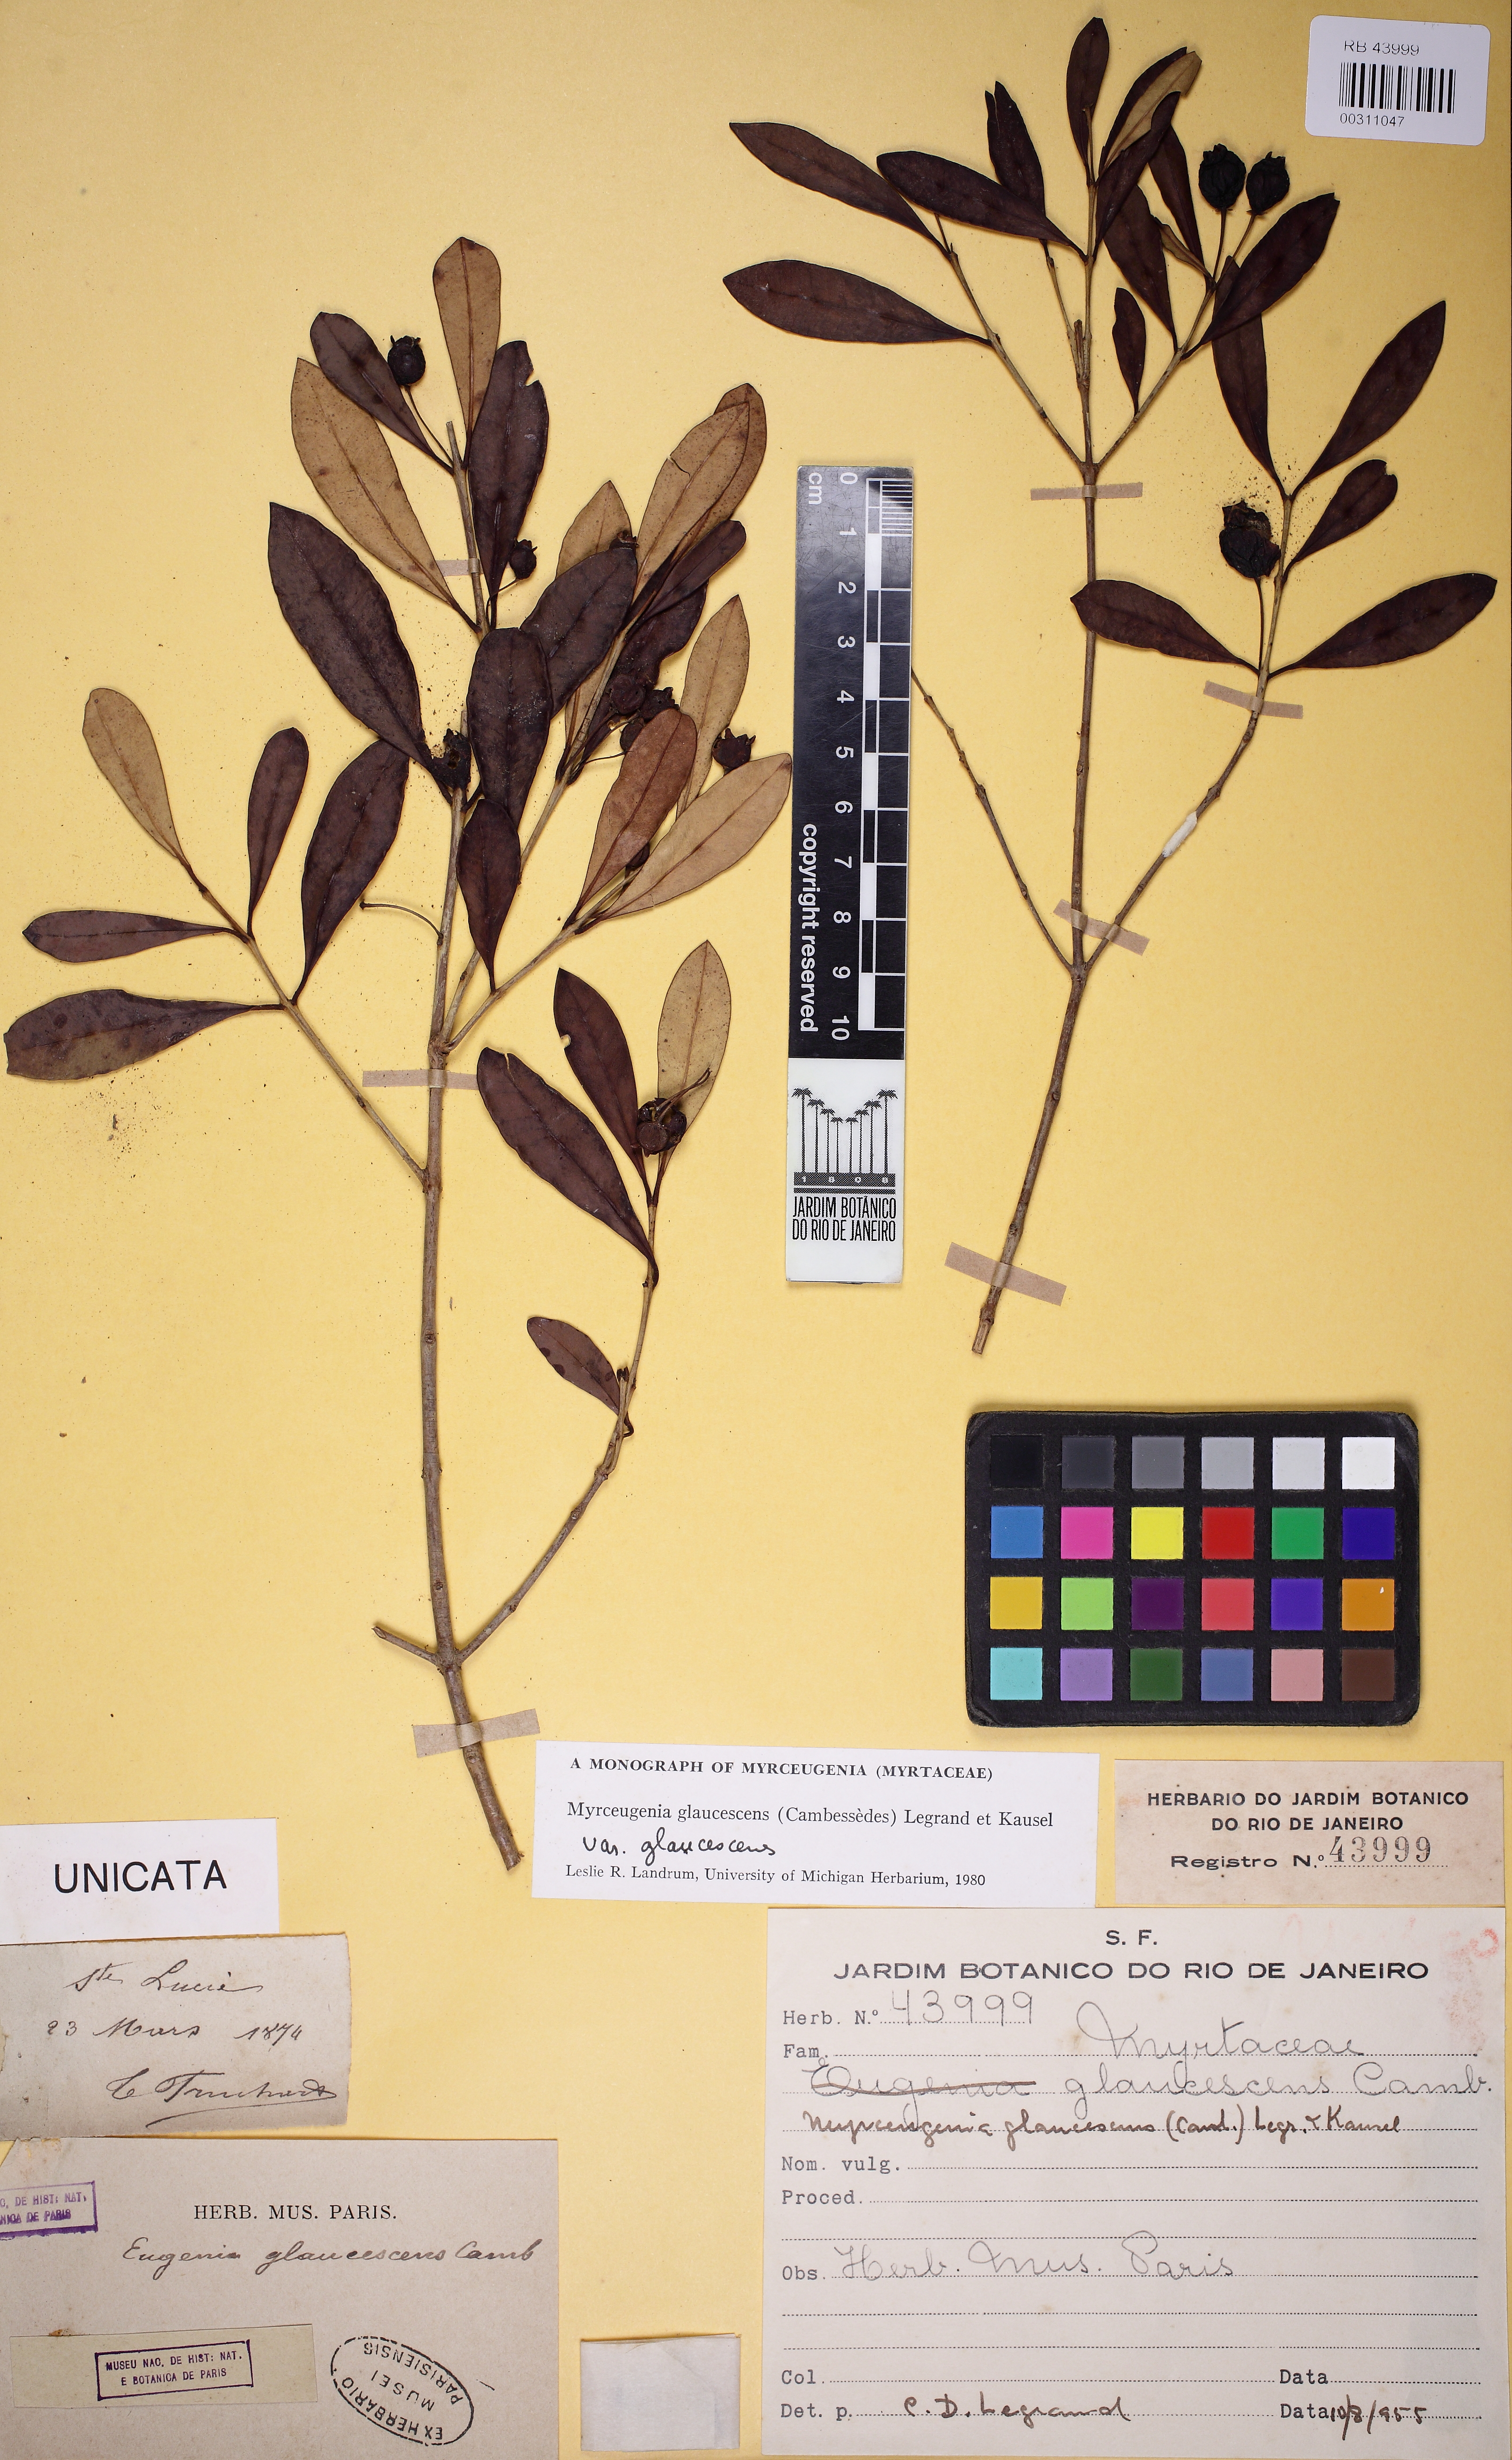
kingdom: Plantae
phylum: Tracheophyta
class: Magnoliopsida
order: Myrtales
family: Myrtaceae
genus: Myrceugenia
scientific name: Myrceugenia glaucescens
